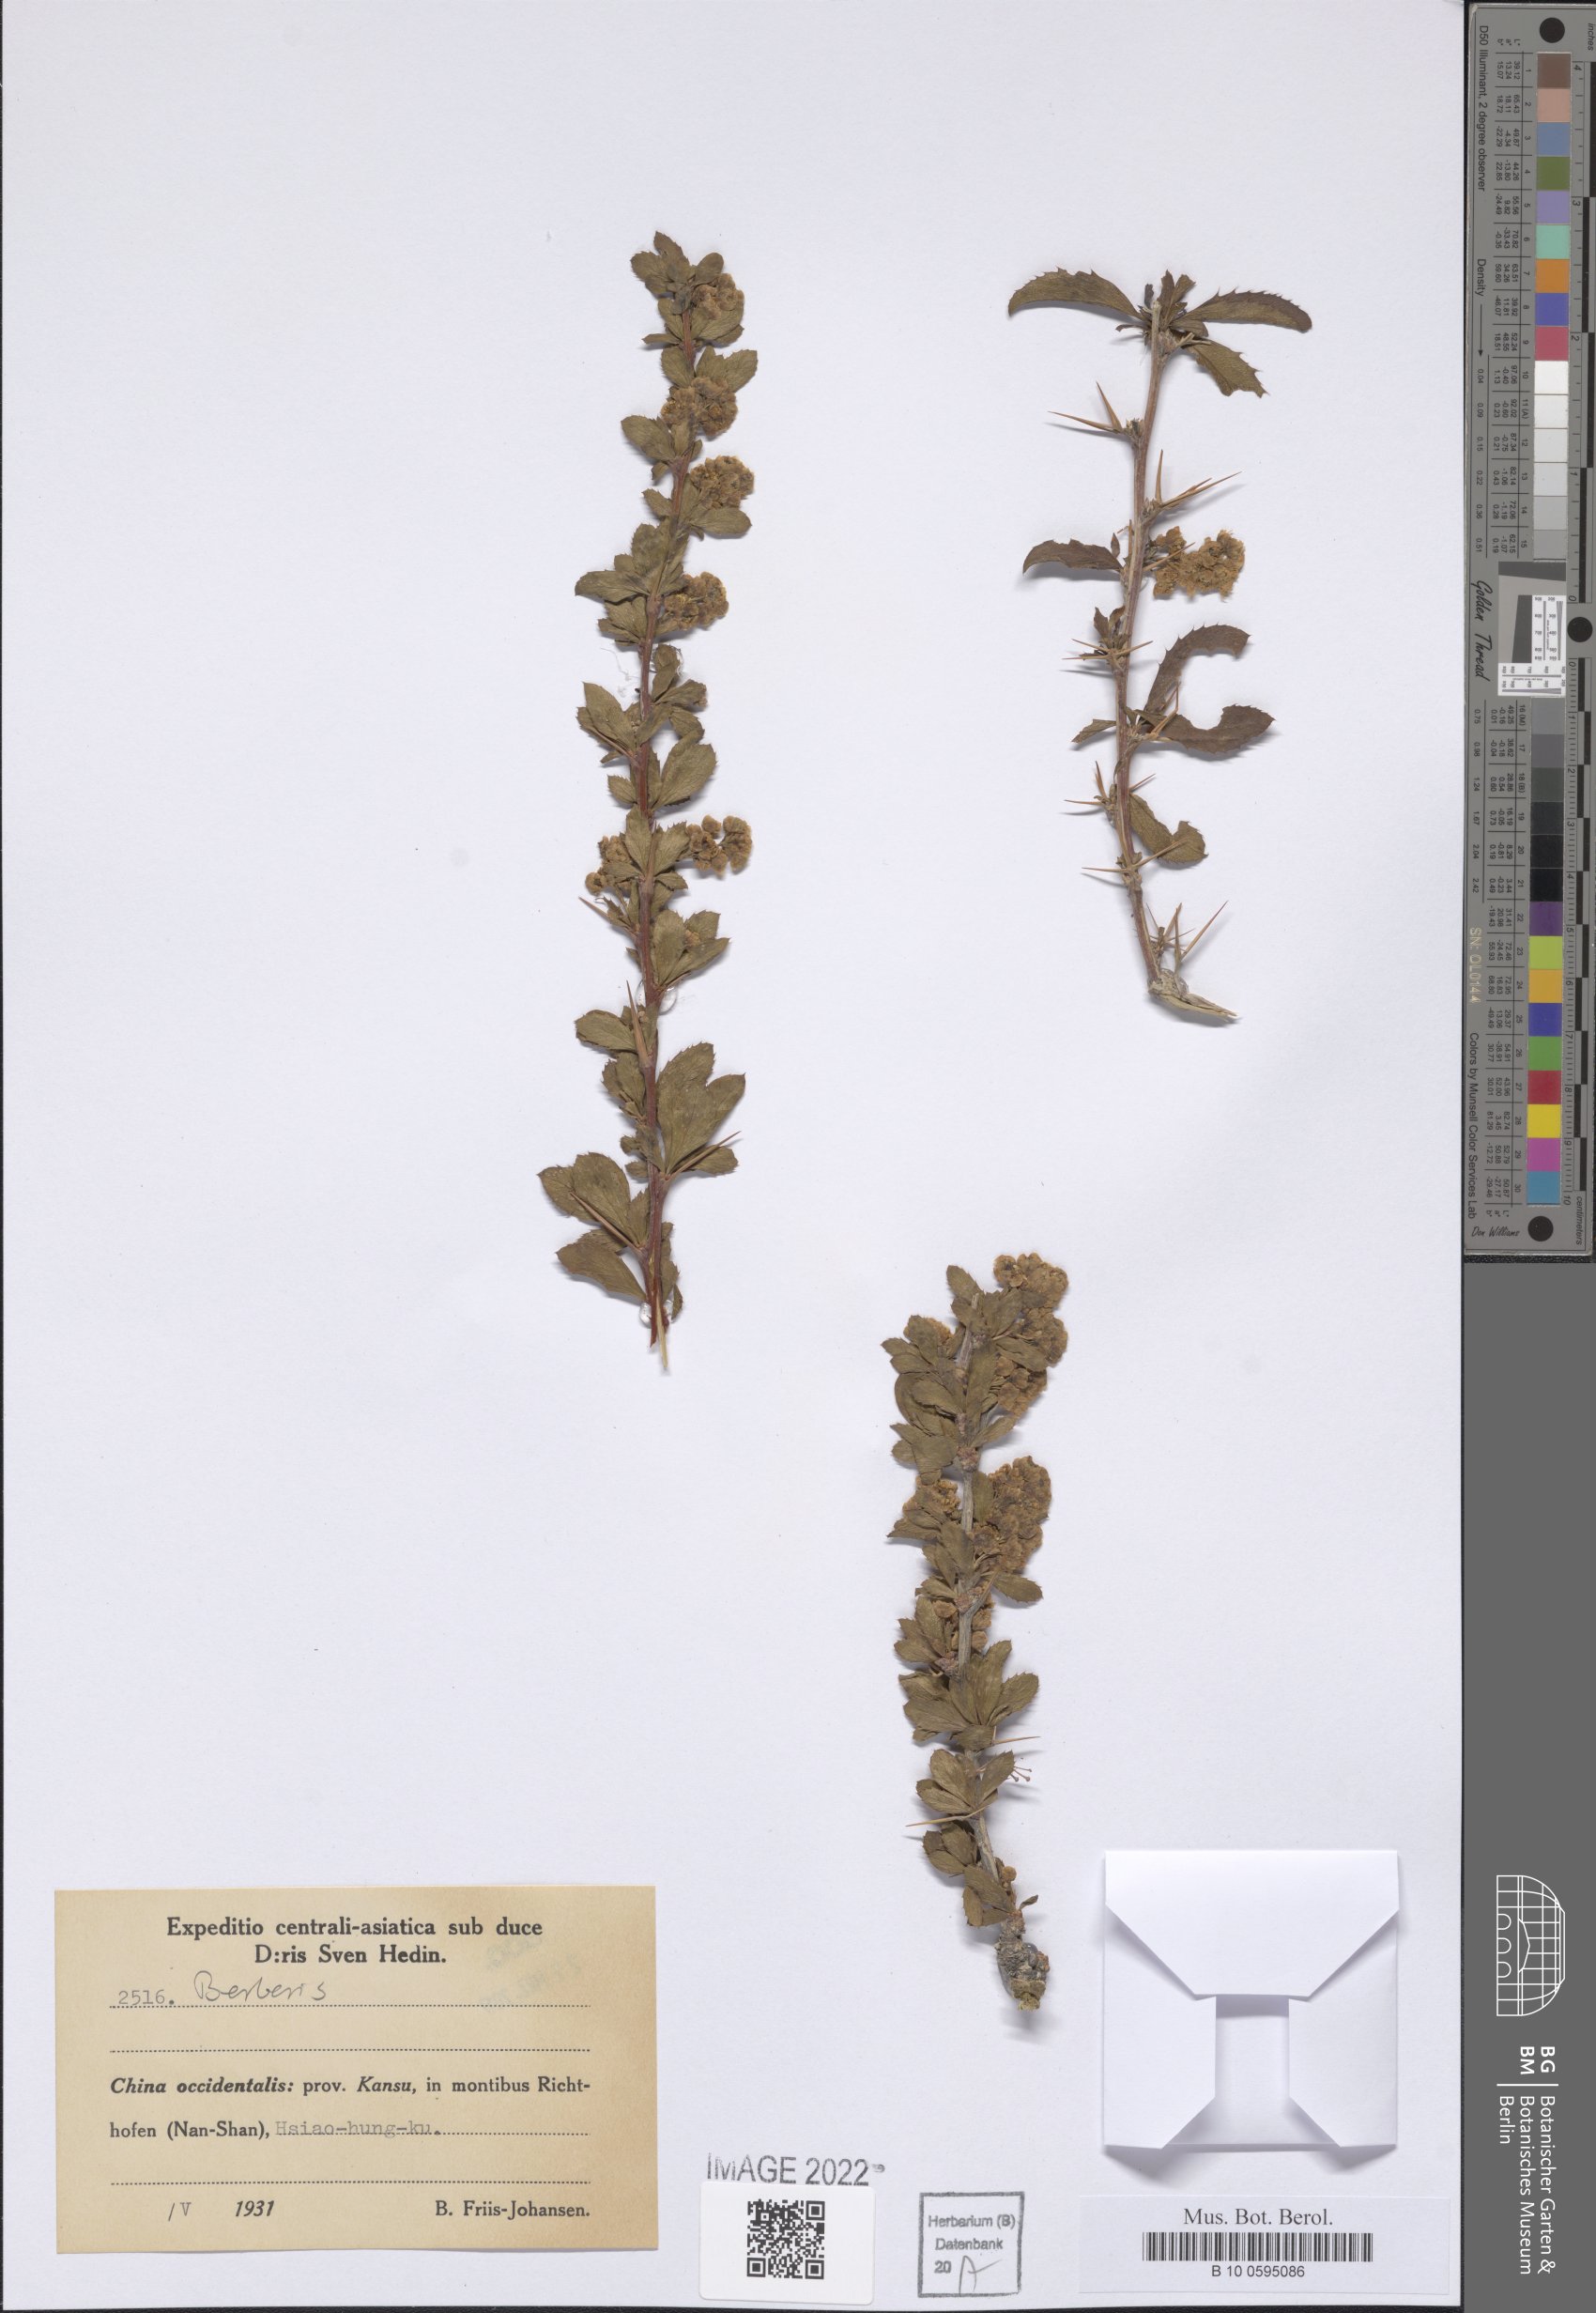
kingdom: Plantae
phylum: Tracheophyta
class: Magnoliopsida
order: Ranunculales
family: Berberidaceae
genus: Berberis
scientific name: Berberis
